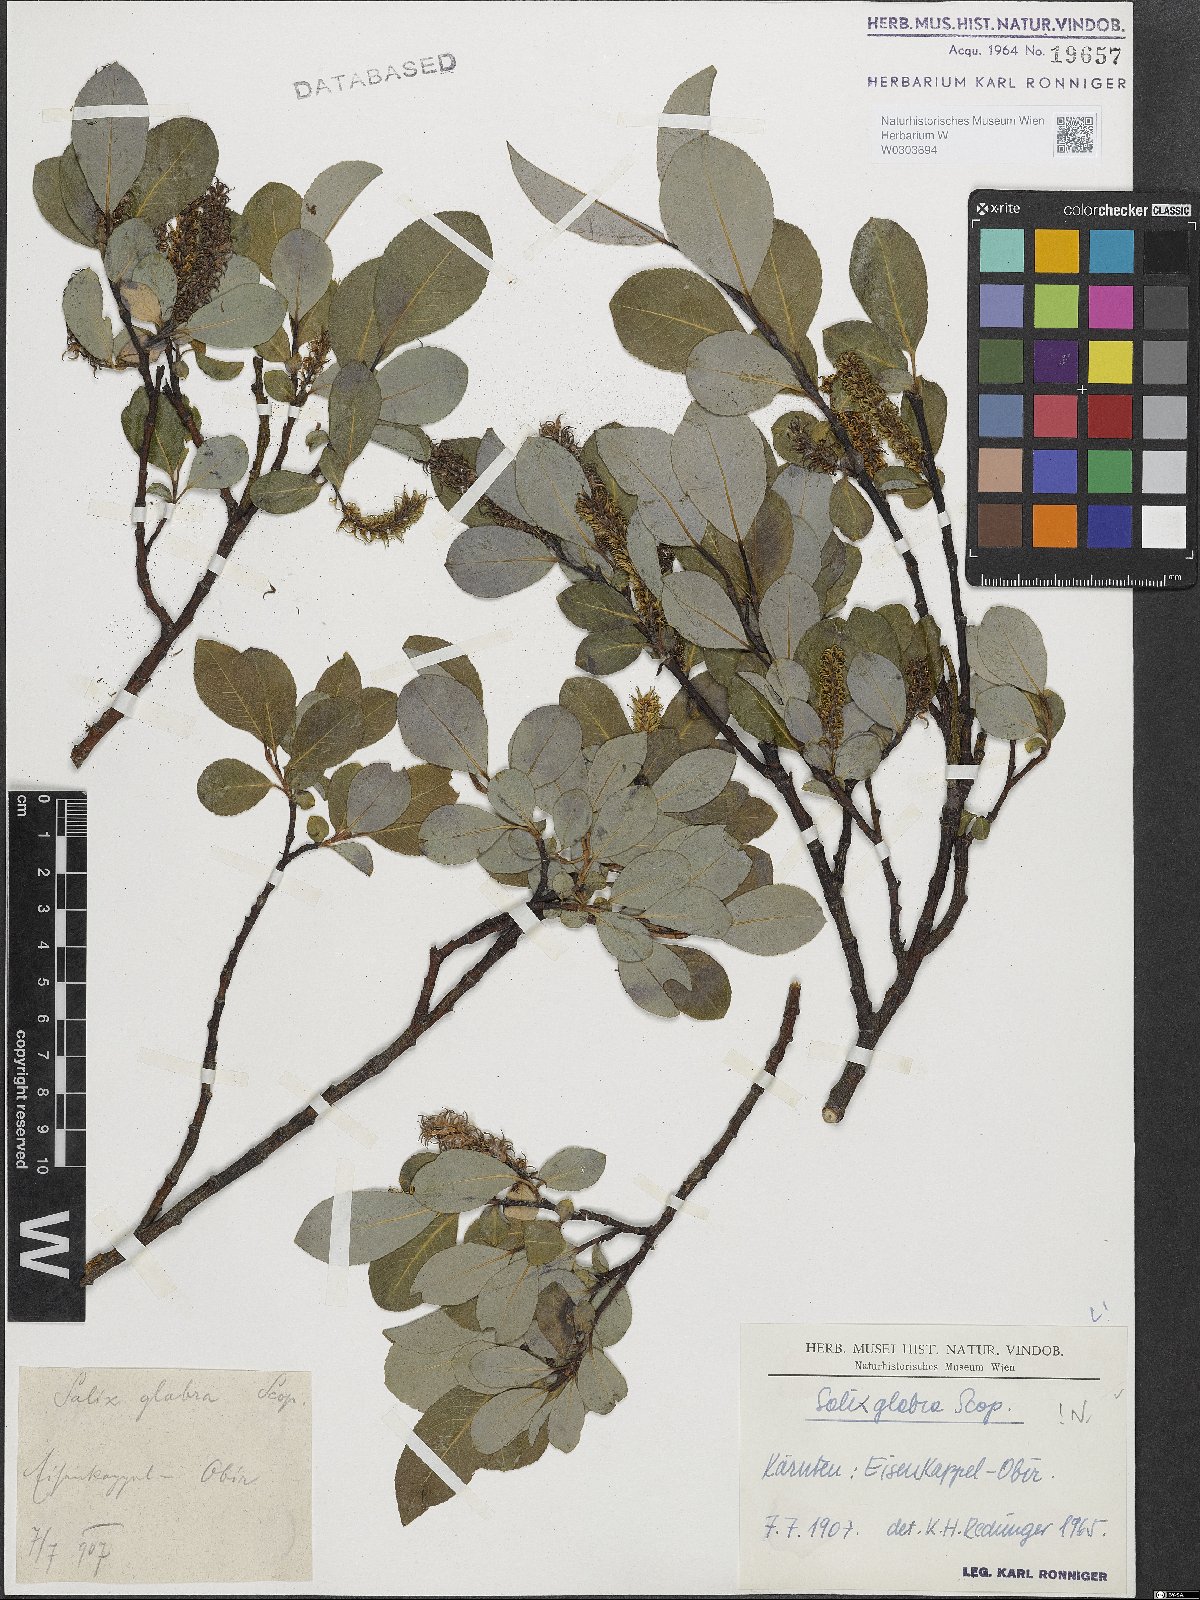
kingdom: Plantae
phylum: Tracheophyta
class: Magnoliopsida
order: Malpighiales
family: Salicaceae
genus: Salix
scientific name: Salix glabra
